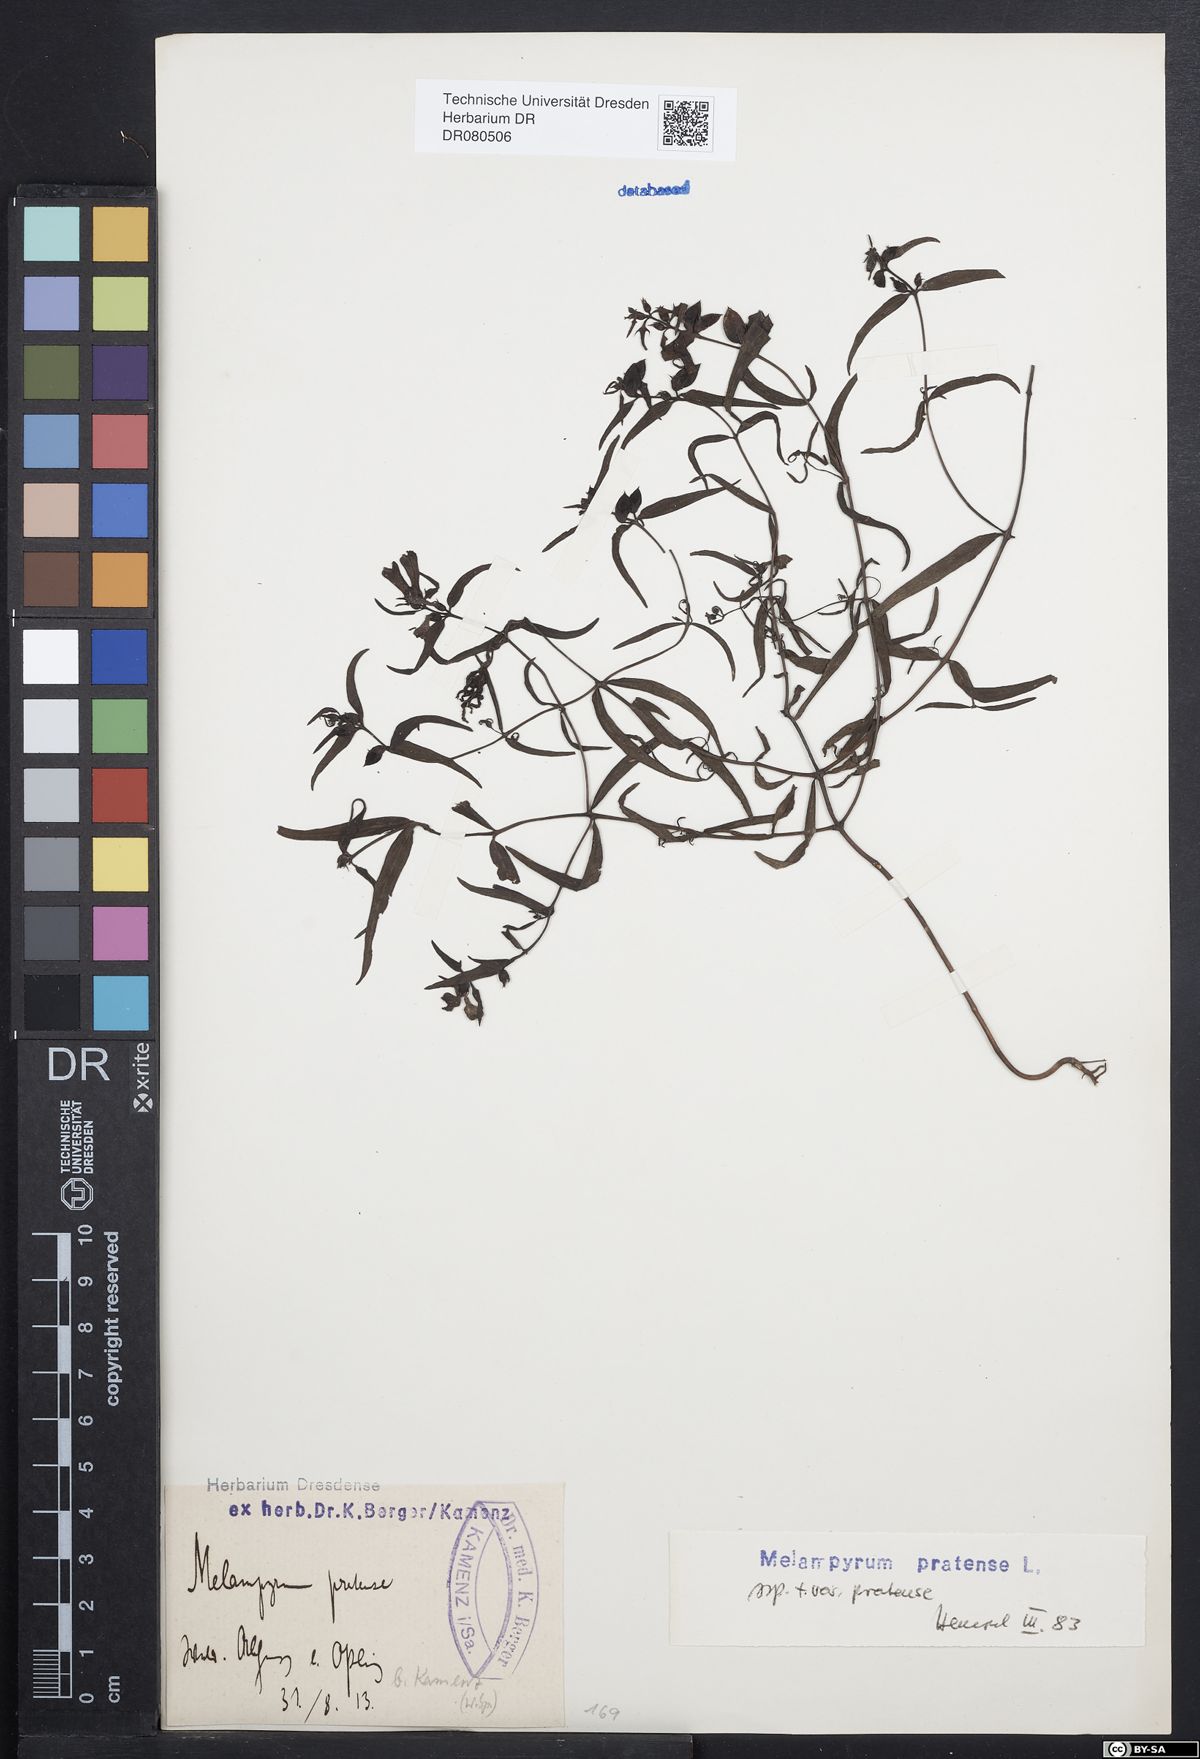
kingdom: Plantae
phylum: Tracheophyta
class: Magnoliopsida
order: Lamiales
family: Orobanchaceae
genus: Melampyrum
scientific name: Melampyrum pratense
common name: Common cow-wheat
